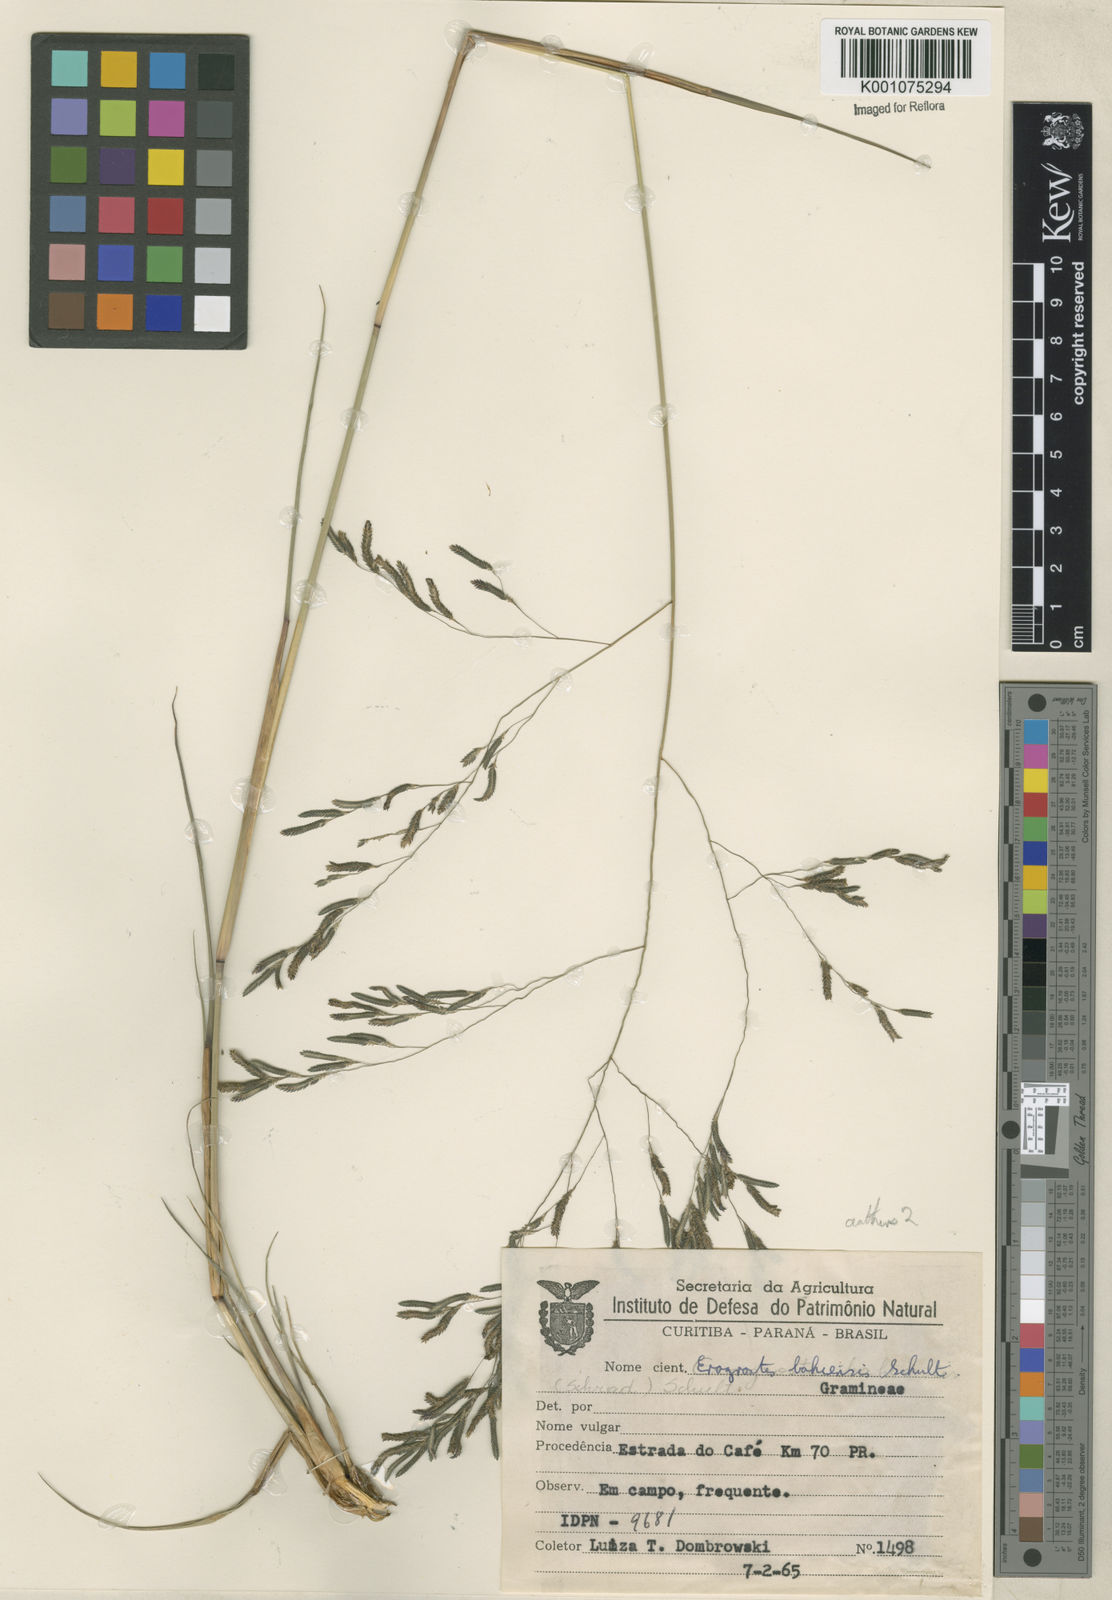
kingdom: Plantae
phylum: Tracheophyta
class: Liliopsida
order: Poales
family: Poaceae
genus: Eragrostis
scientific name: Eragrostis bahiensis
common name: Bahia lovegrass
